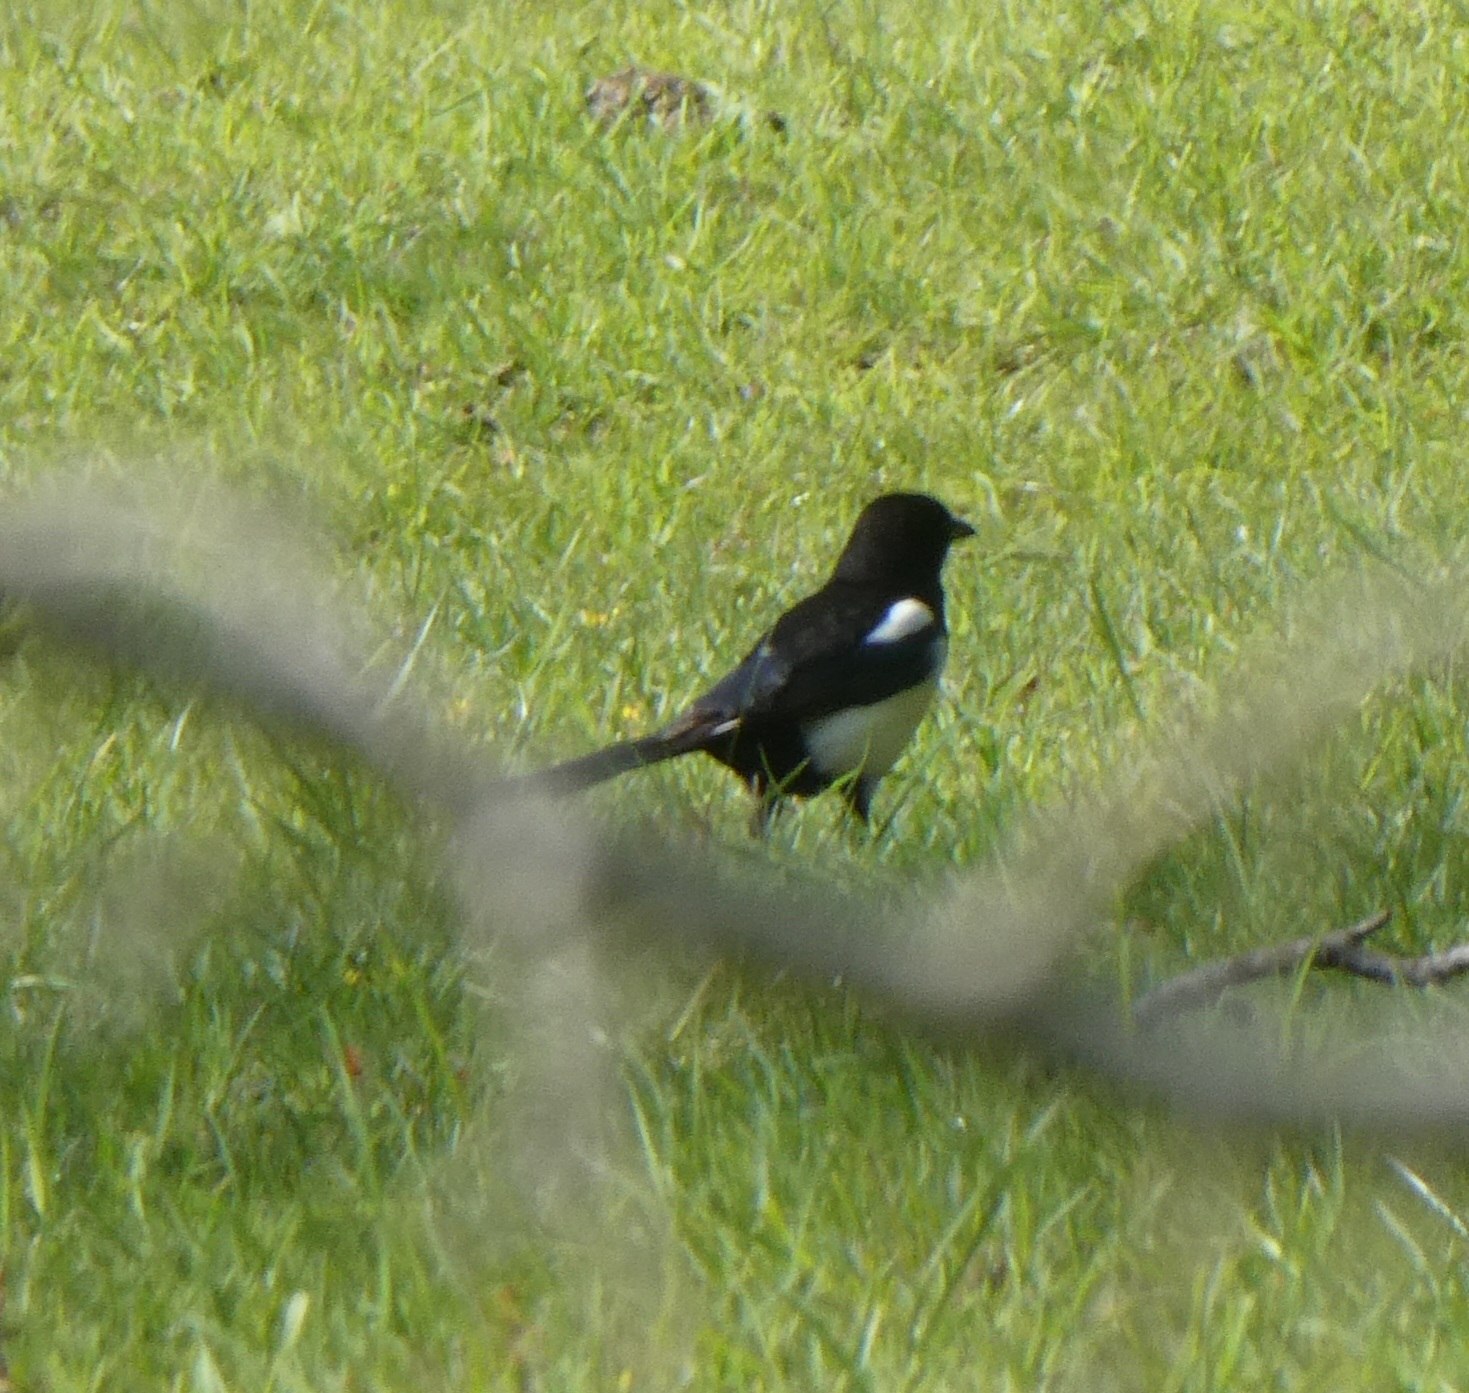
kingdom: Animalia
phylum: Chordata
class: Aves
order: Passeriformes
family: Corvidae
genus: Pica
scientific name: Pica pica
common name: Husskade
